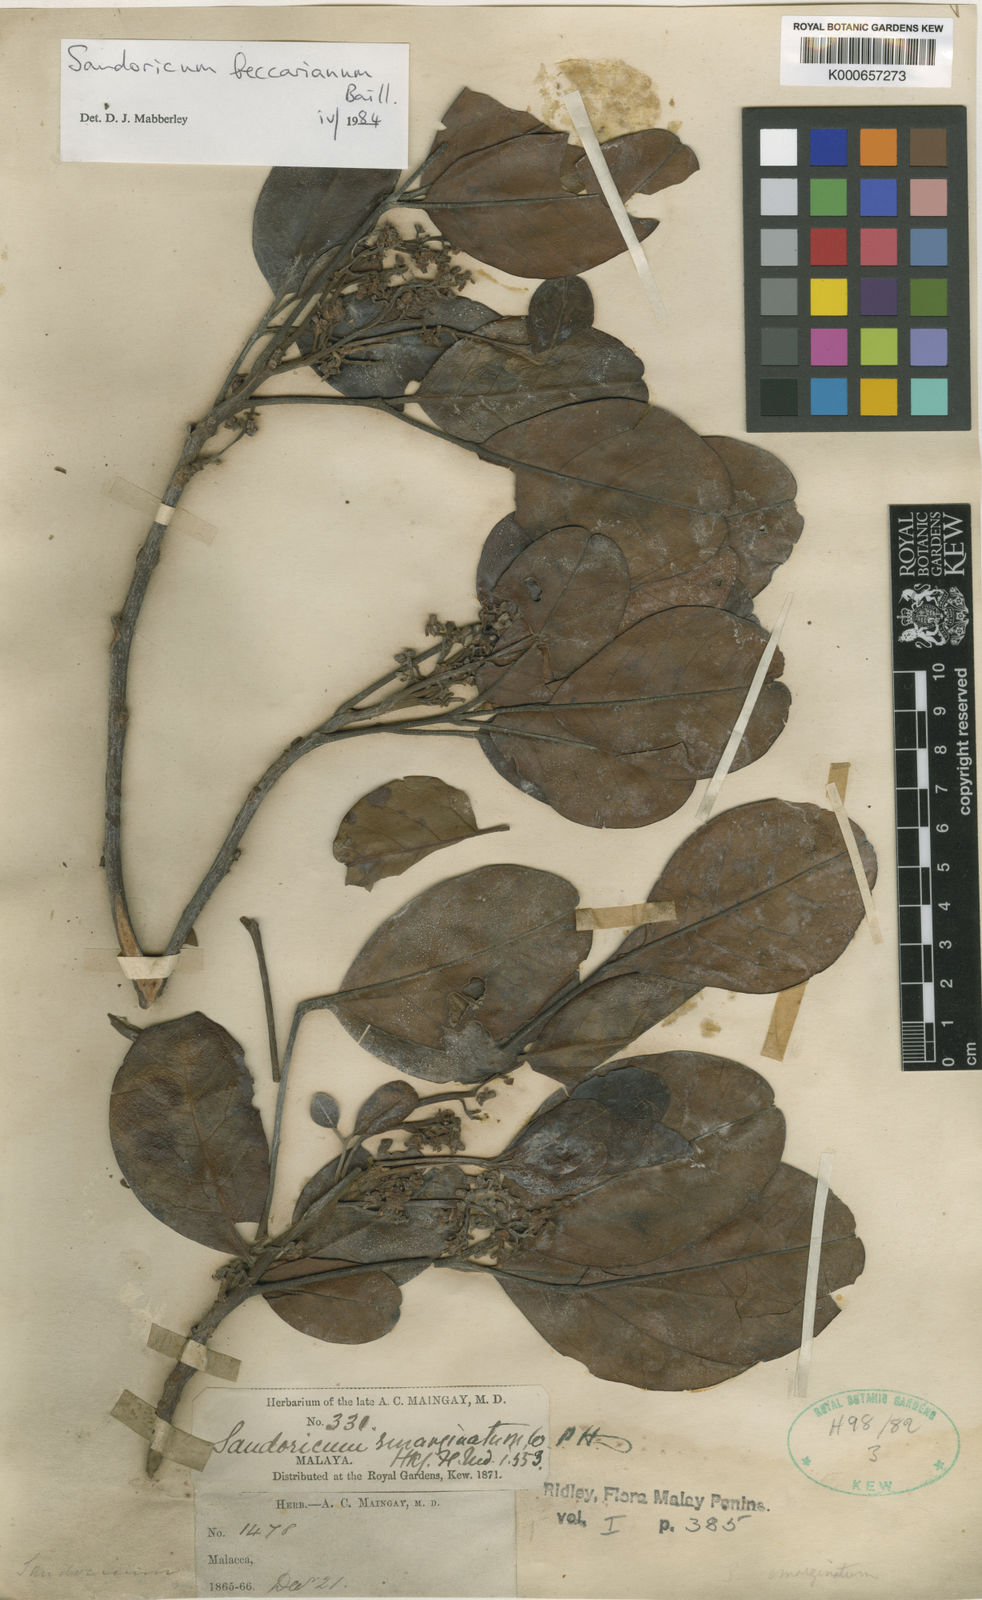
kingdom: Plantae
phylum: Tracheophyta
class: Magnoliopsida
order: Sapindales
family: Meliaceae
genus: Sandoricum
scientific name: Sandoricum beccarianum
